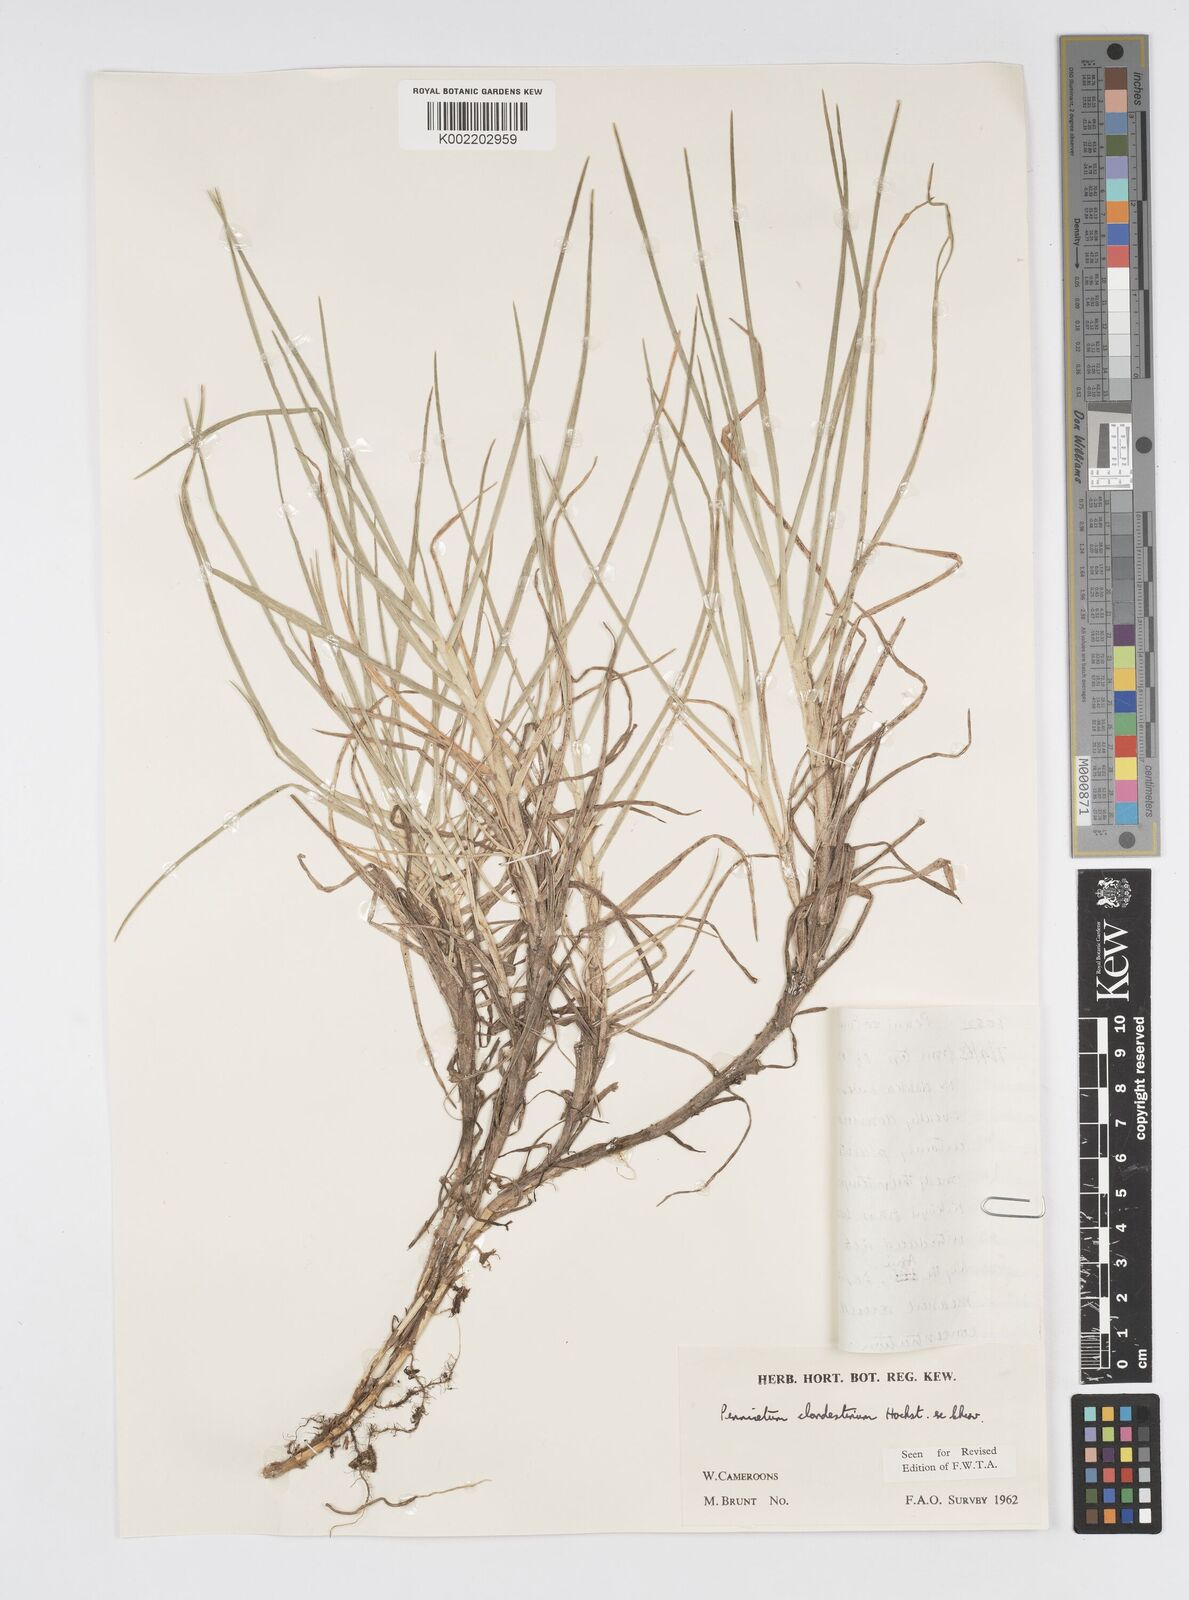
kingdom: Plantae
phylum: Tracheophyta
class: Liliopsida
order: Poales
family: Poaceae
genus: Cenchrus
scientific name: Cenchrus clandestinus
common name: Kikuyugrass
